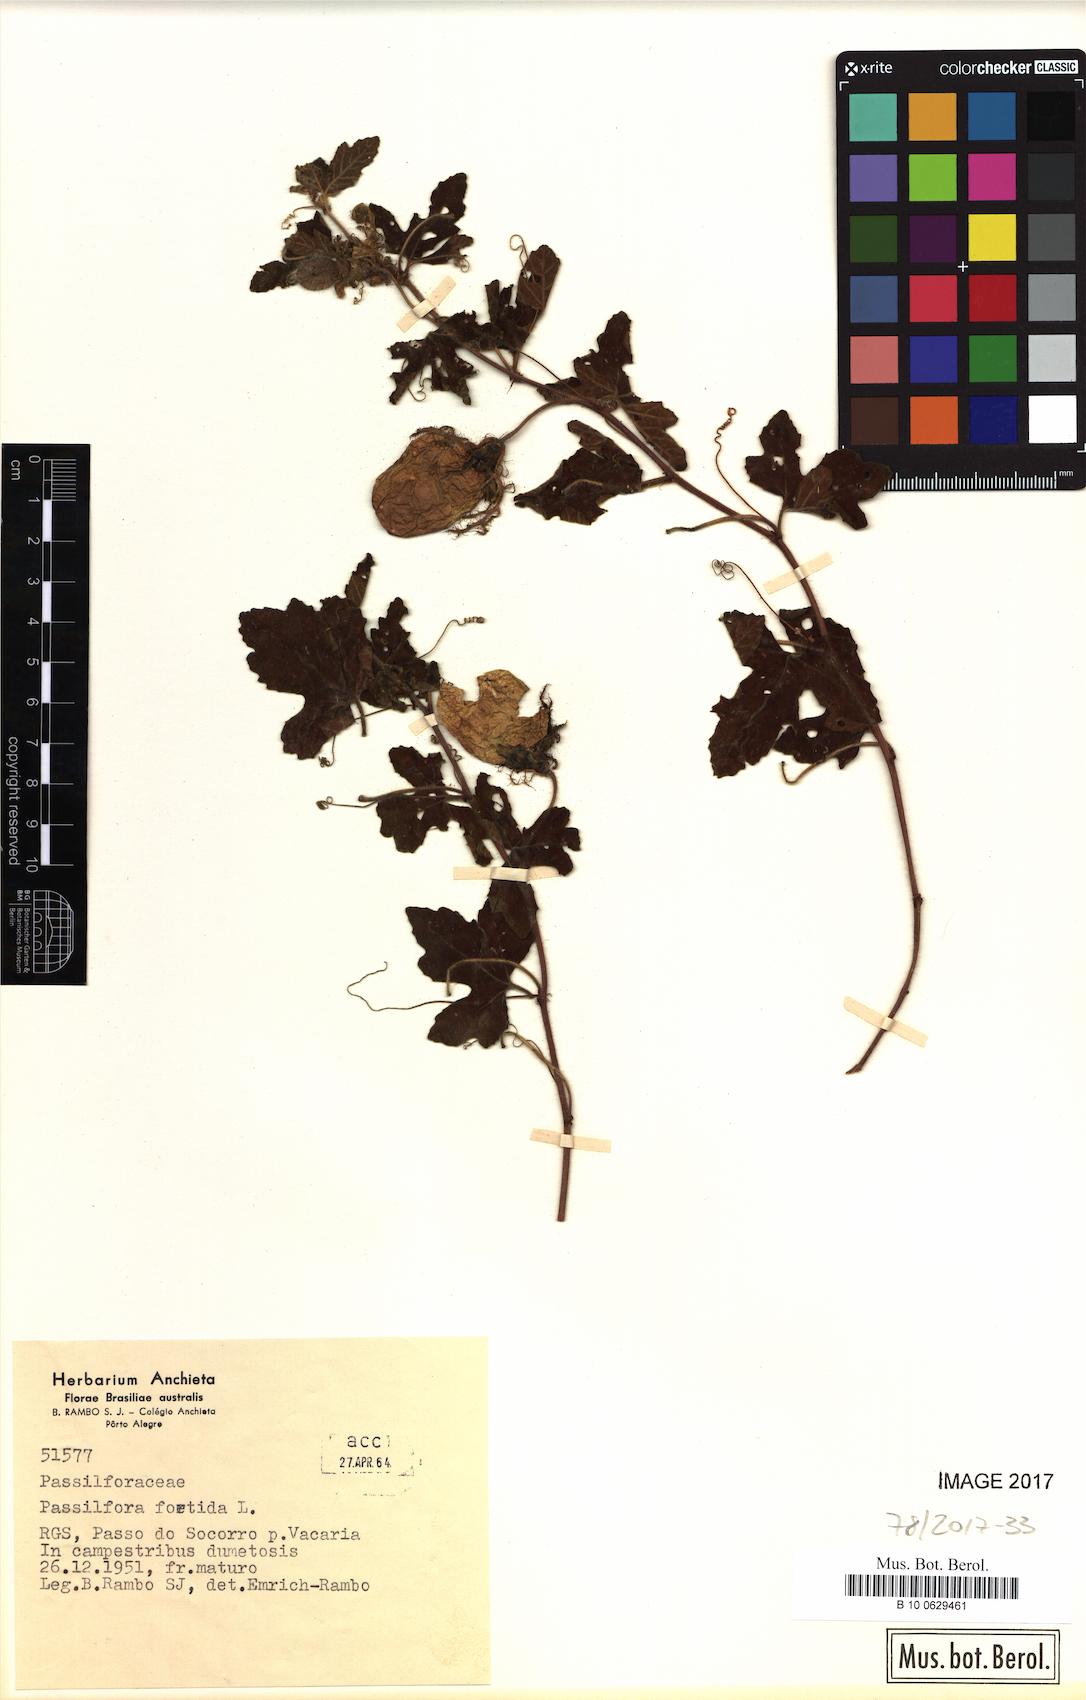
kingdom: Plantae
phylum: Tracheophyta
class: Magnoliopsida
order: Malpighiales
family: Passifloraceae
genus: Passiflora
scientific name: Passiflora foetida
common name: Fetid passionflower
